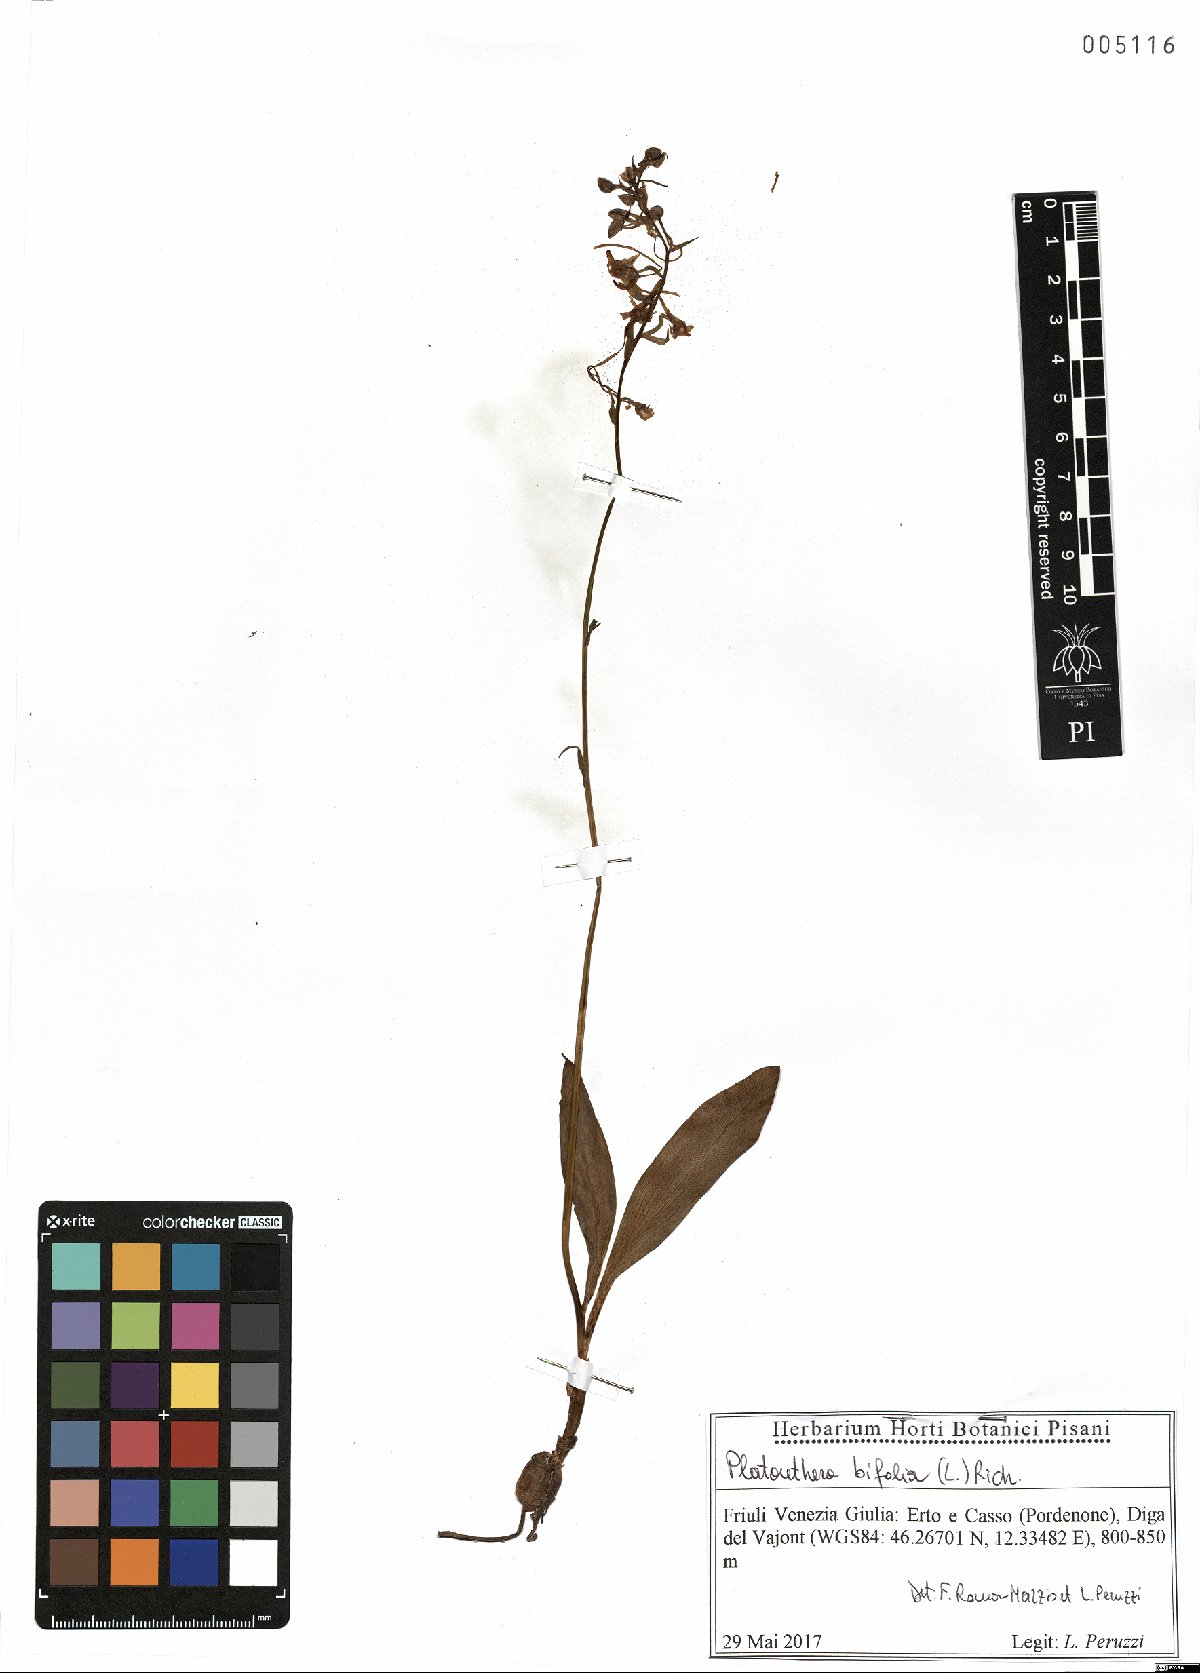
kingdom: Plantae
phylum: Tracheophyta
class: Liliopsida
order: Asparagales
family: Orchidaceae
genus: Platanthera
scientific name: Platanthera bifolia
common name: Lesser butterfly-orchid
